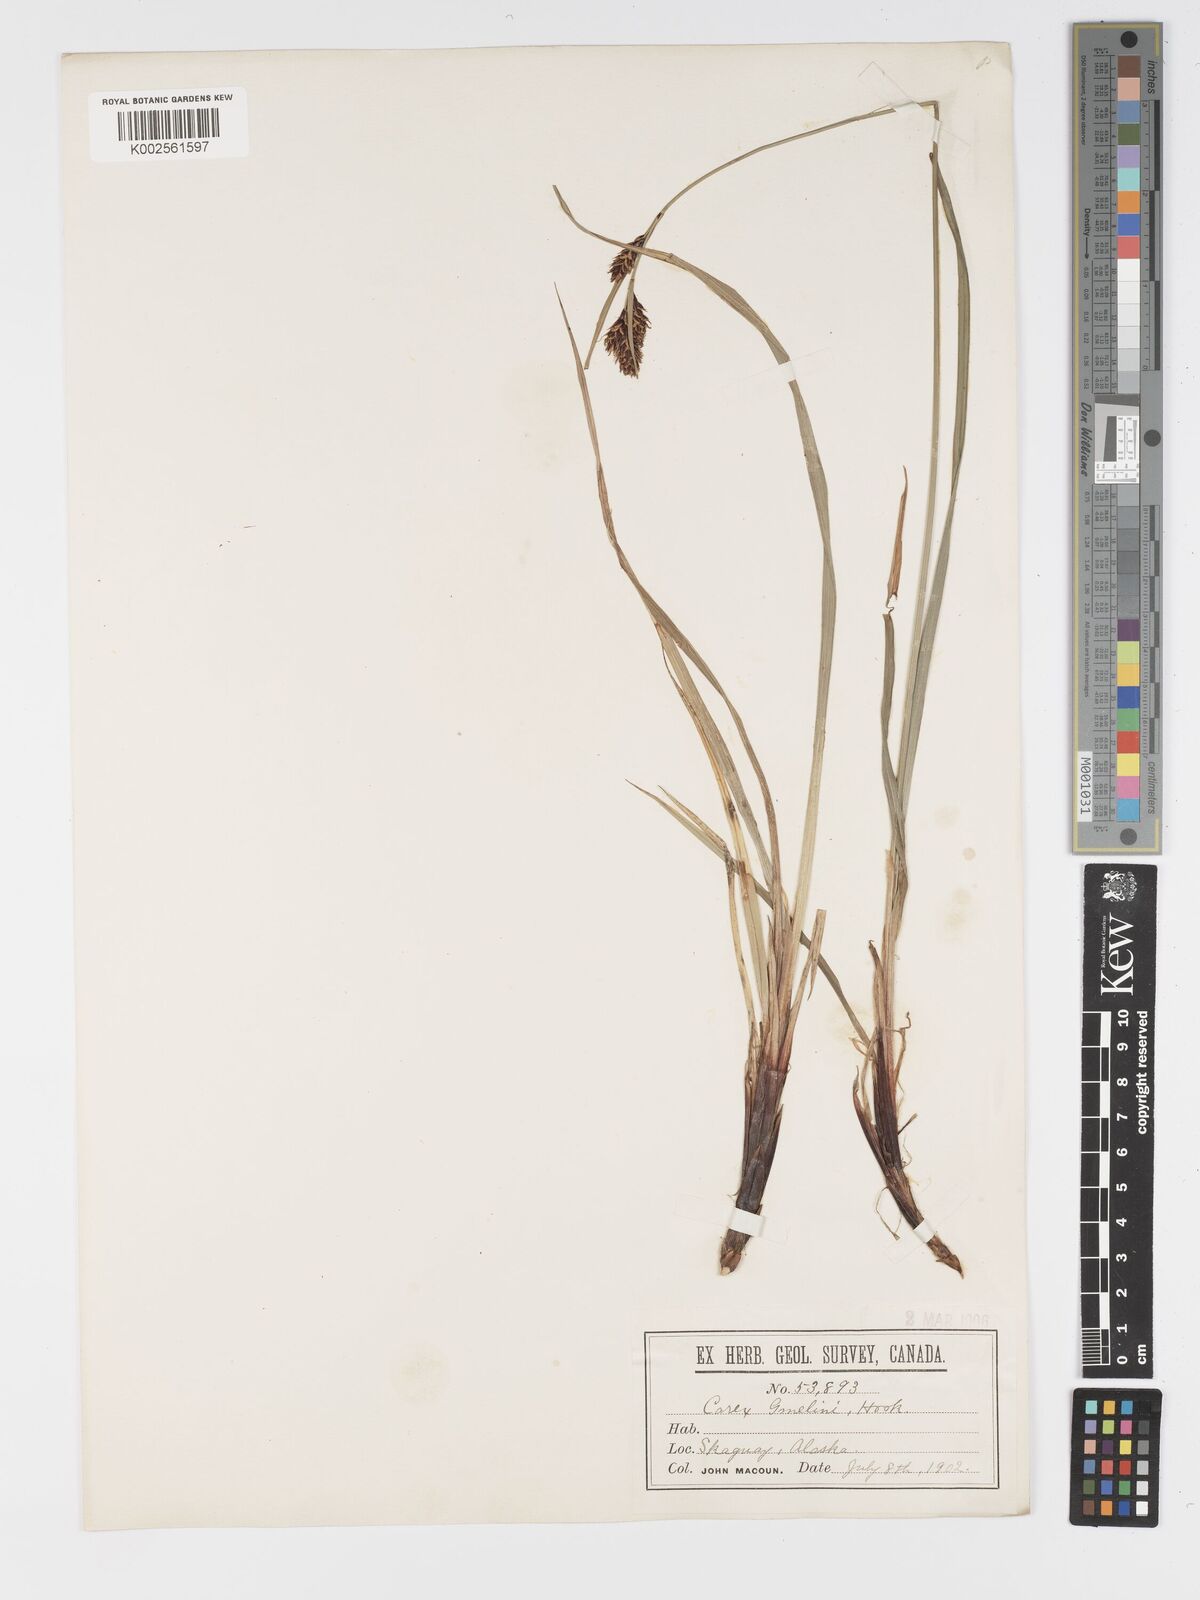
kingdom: Plantae
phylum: Tracheophyta
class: Liliopsida
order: Poales
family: Cyperaceae
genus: Carex
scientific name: Carex gmelinii
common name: Gmelin's sedge
